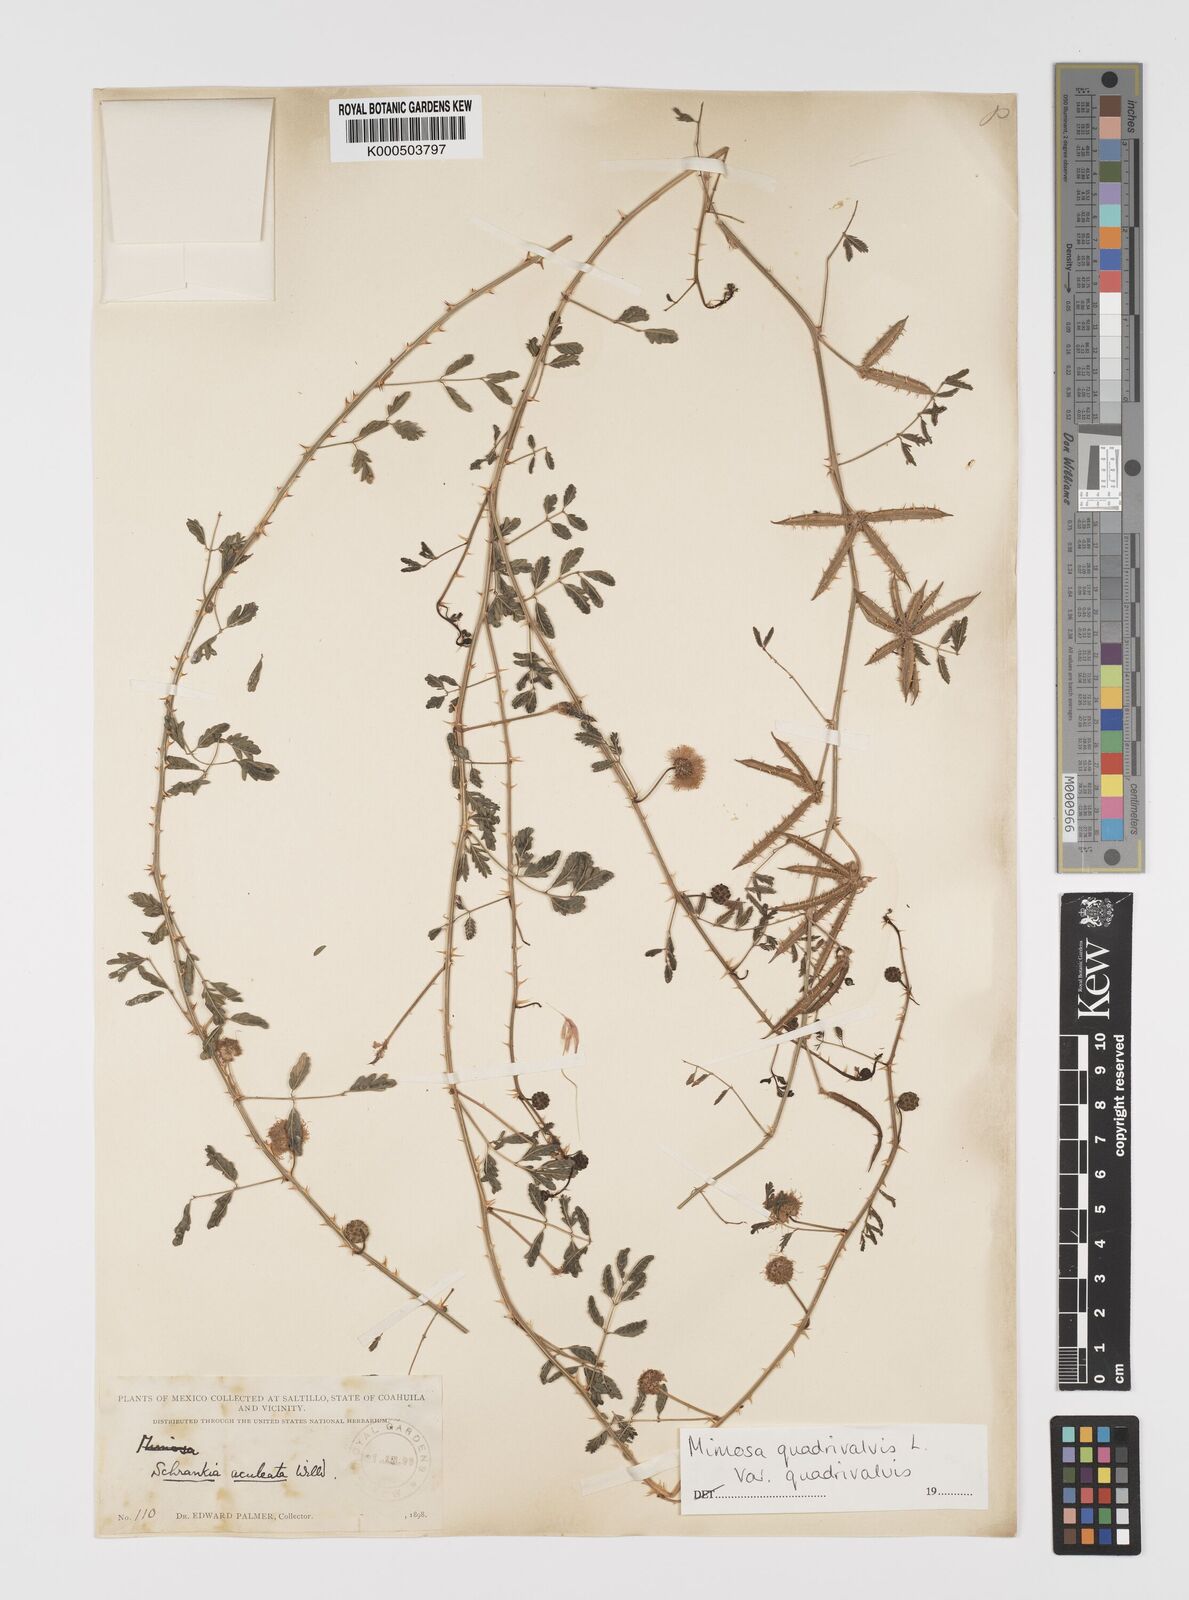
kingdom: Plantae
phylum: Tracheophyta
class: Magnoliopsida
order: Fabales
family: Fabaceae
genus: Mimosa
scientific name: Mimosa quadrivalvis
